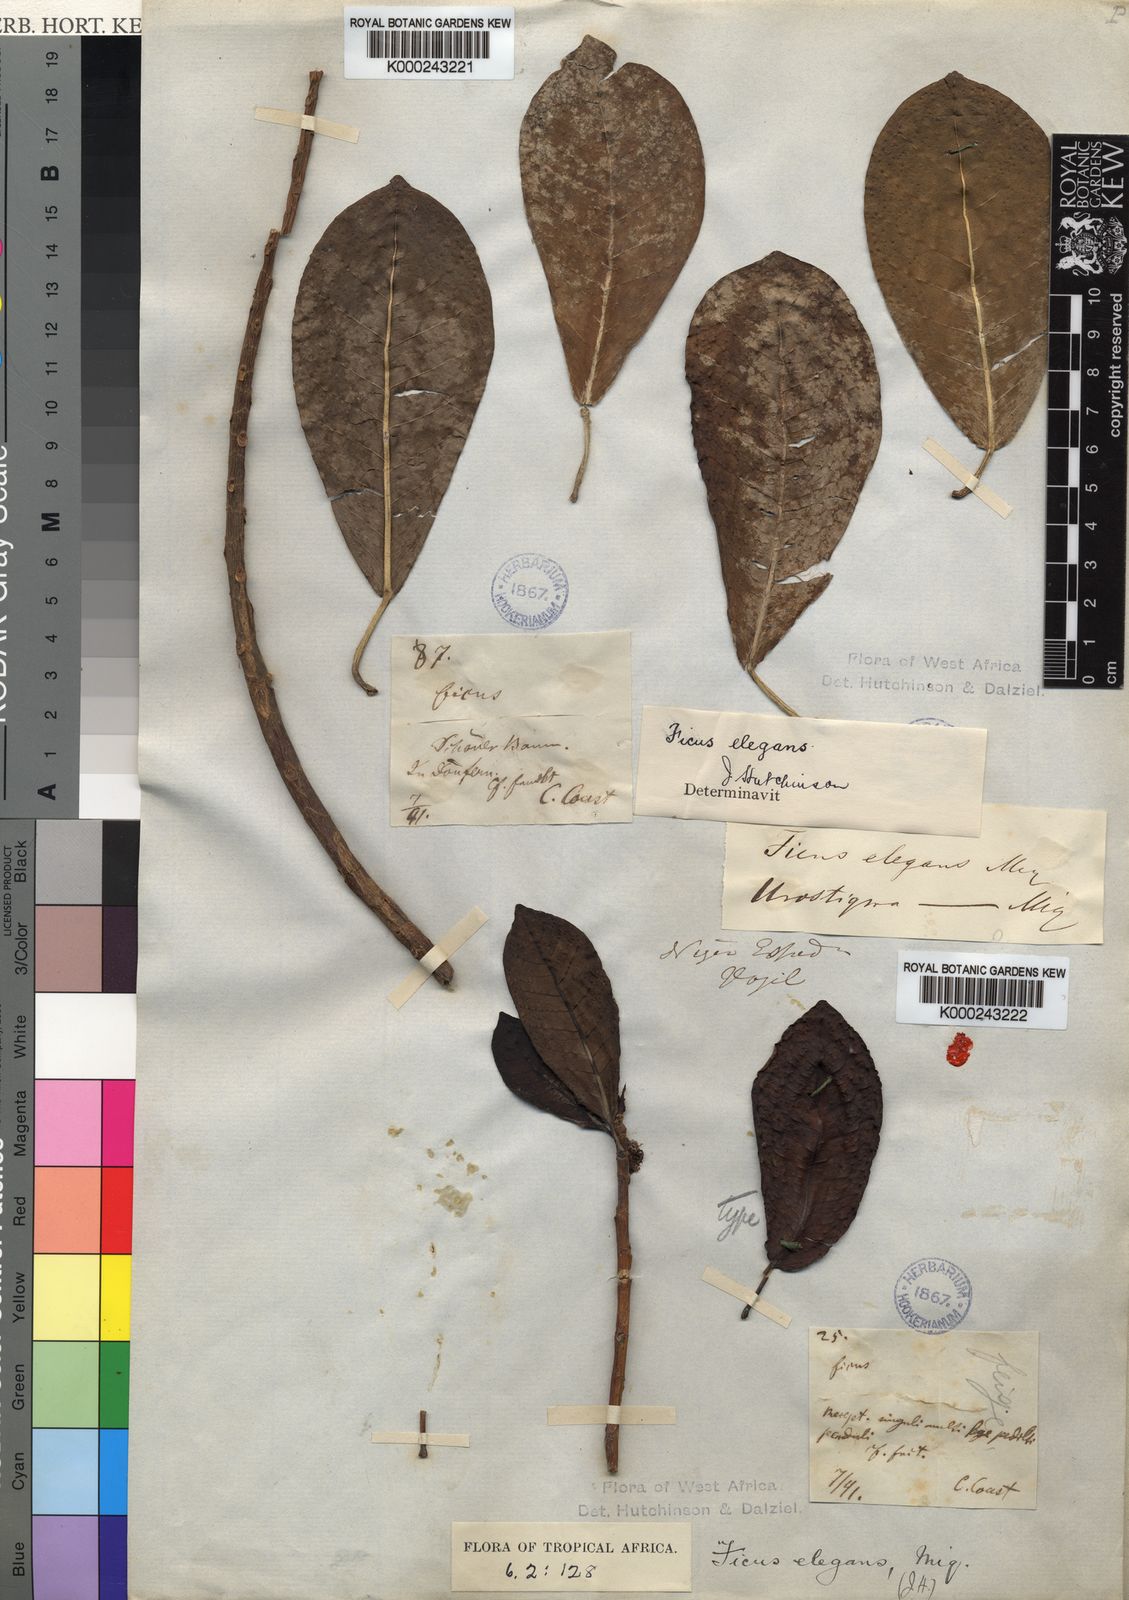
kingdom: Plantae
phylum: Tracheophyta
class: Magnoliopsida
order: Rosales
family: Moraceae
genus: Ficus
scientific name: Ficus
